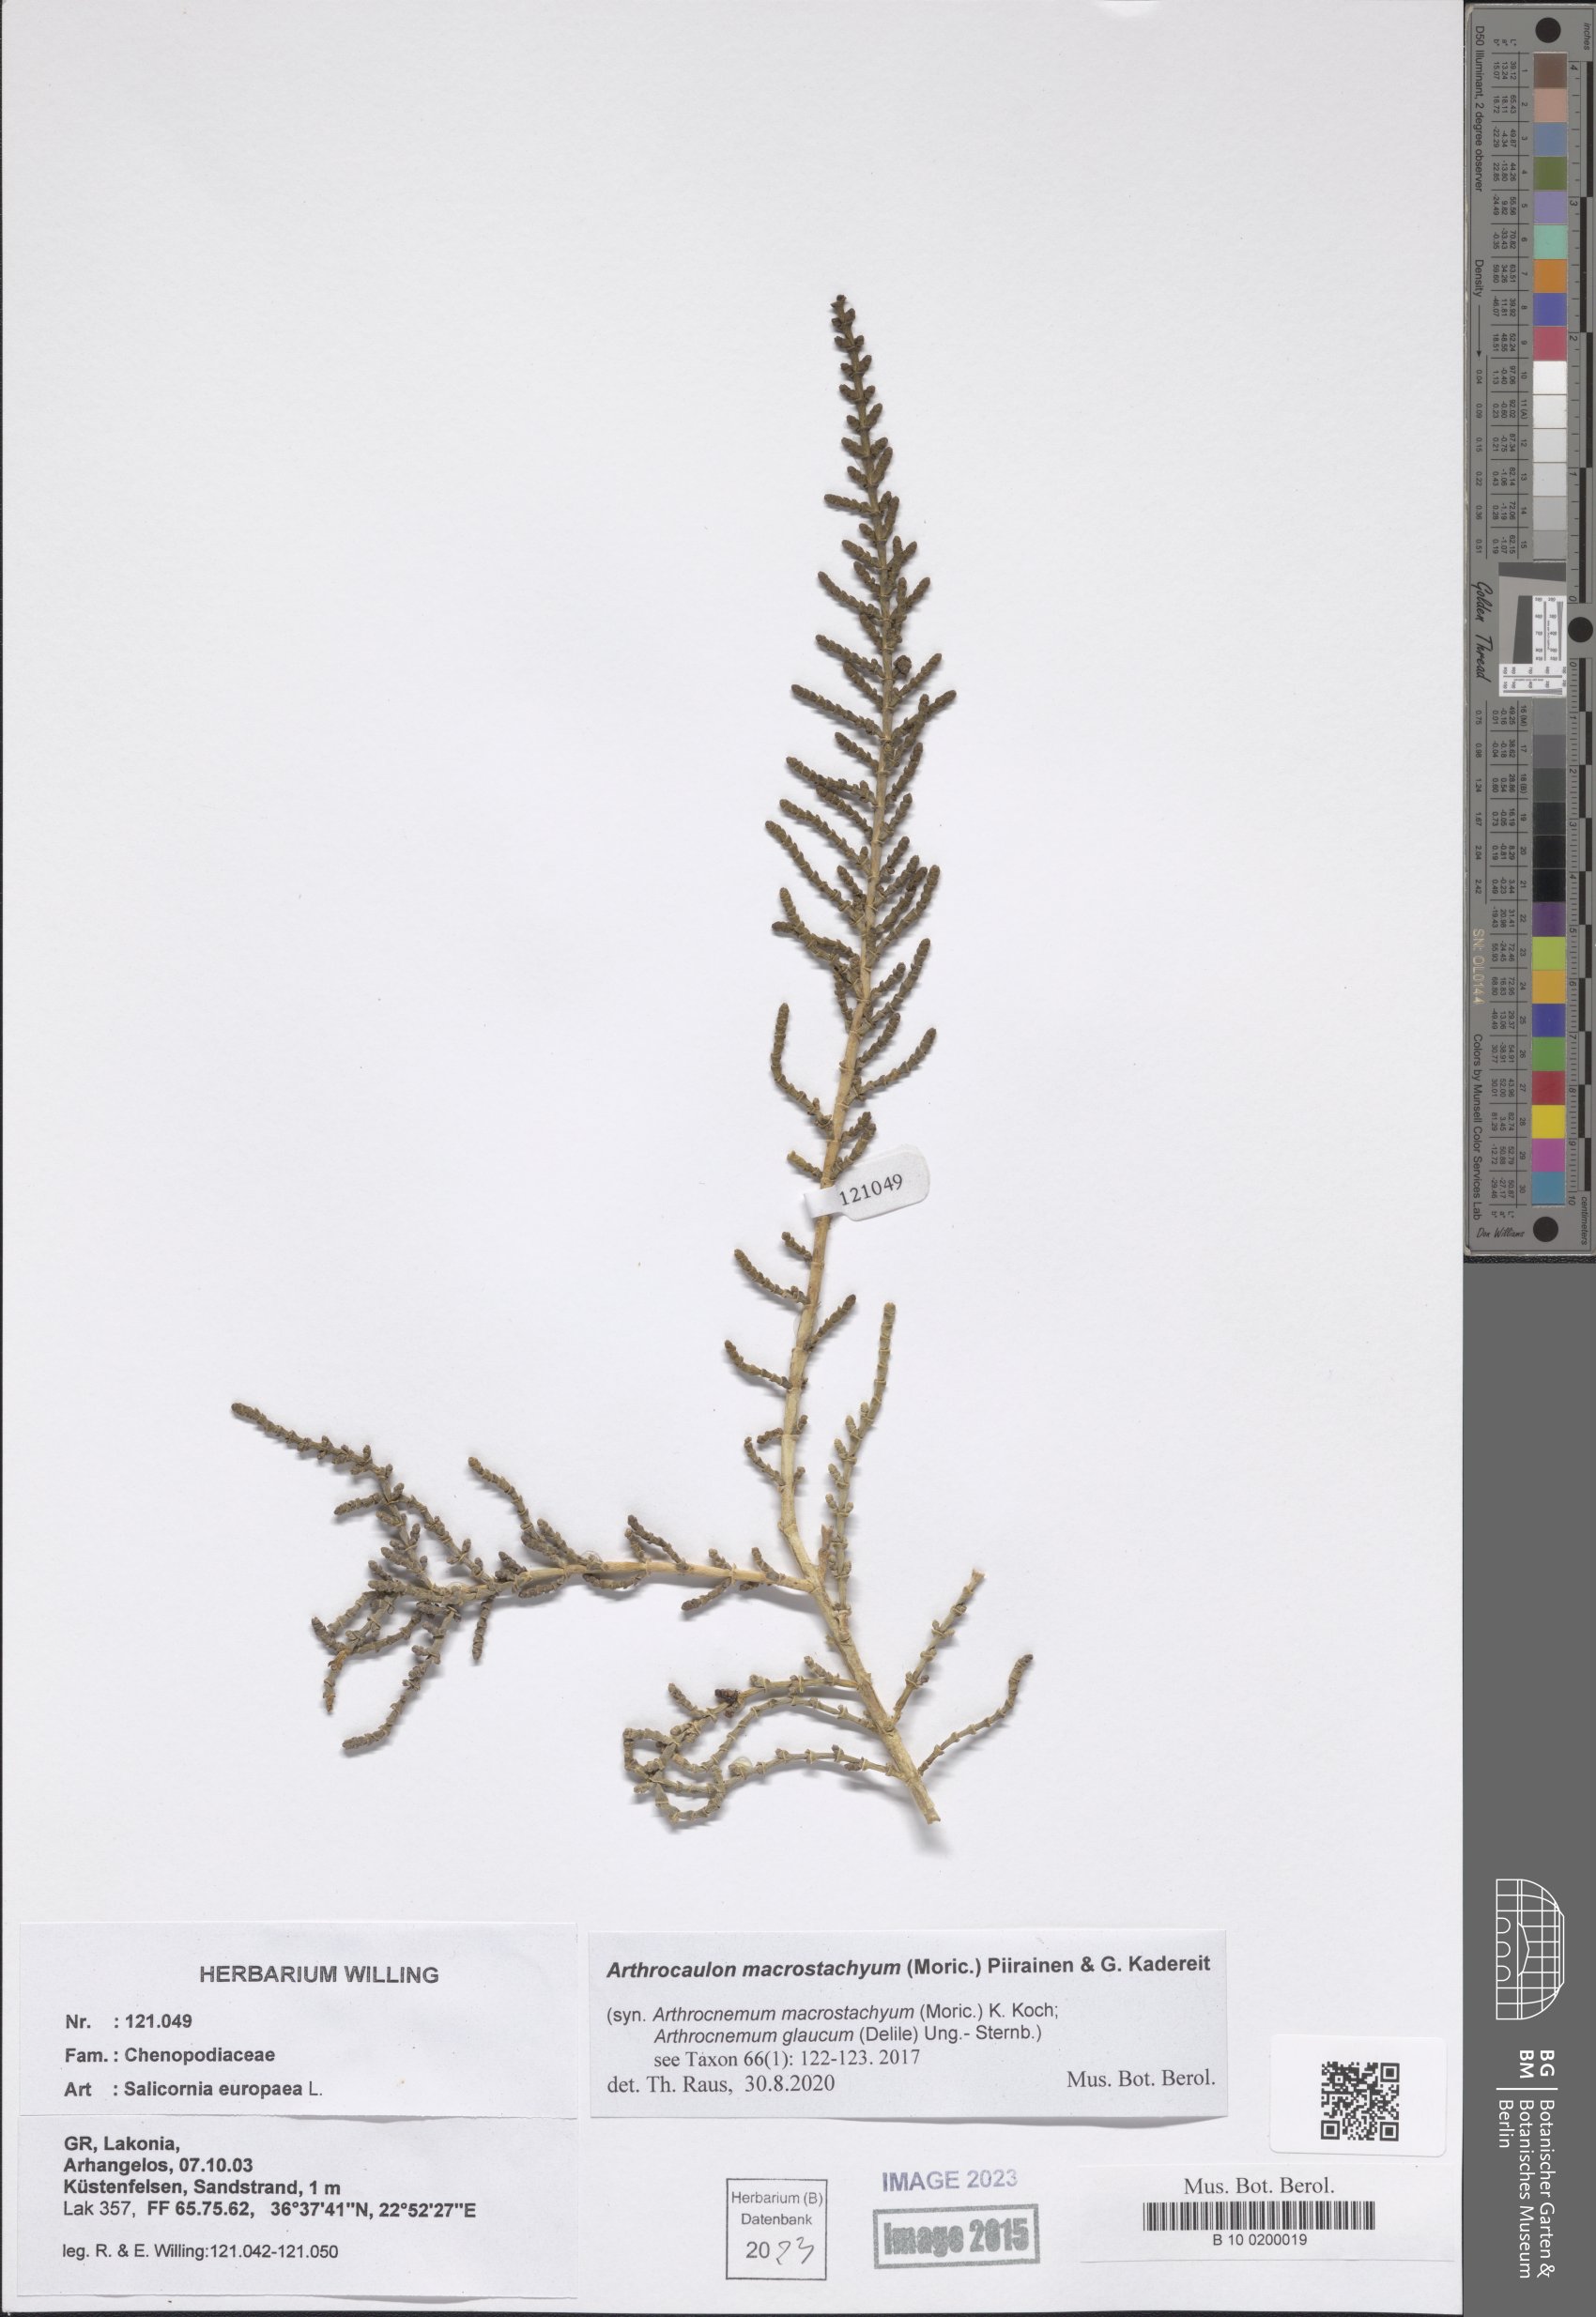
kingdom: Plantae
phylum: Tracheophyta
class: Magnoliopsida
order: Caryophyllales
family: Amaranthaceae
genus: Arthrocaulon
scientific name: Arthrocaulon macrostachyum
